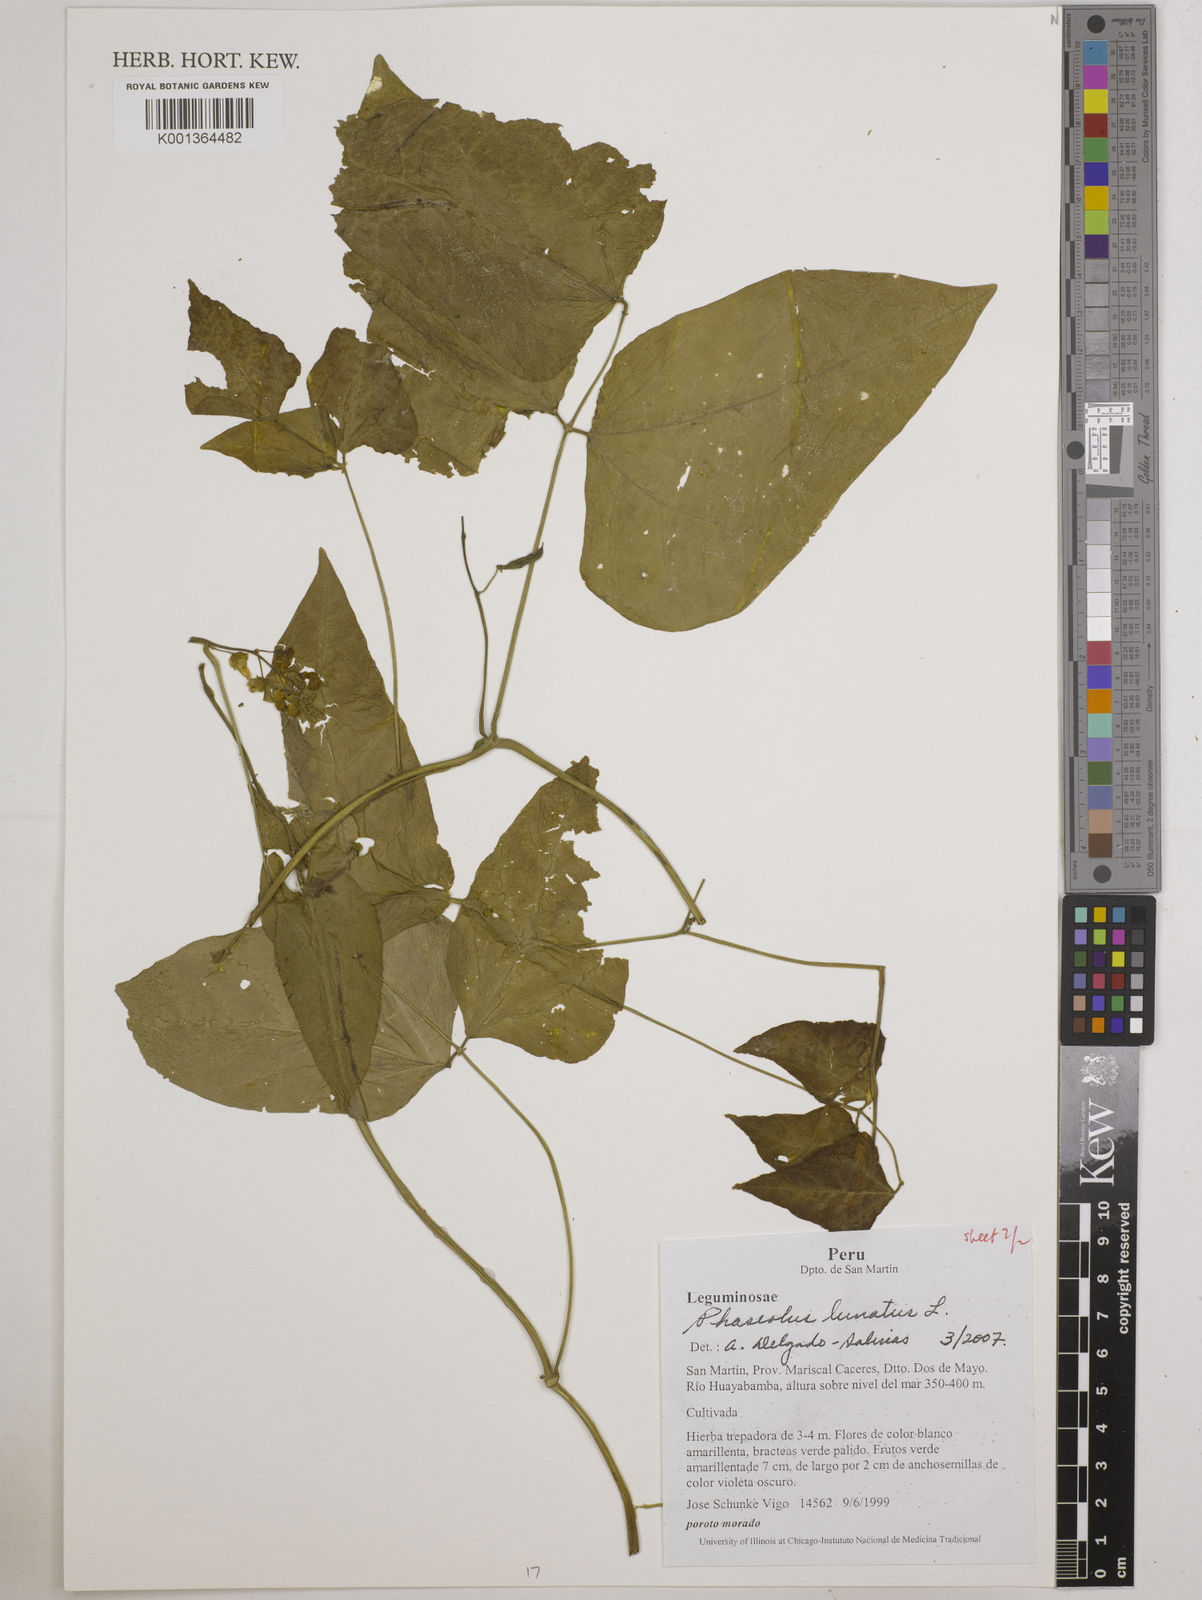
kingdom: Plantae
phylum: Tracheophyta
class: Magnoliopsida
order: Fabales
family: Fabaceae
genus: Phaseolus
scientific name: Phaseolus lunatus
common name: Sieva bean
